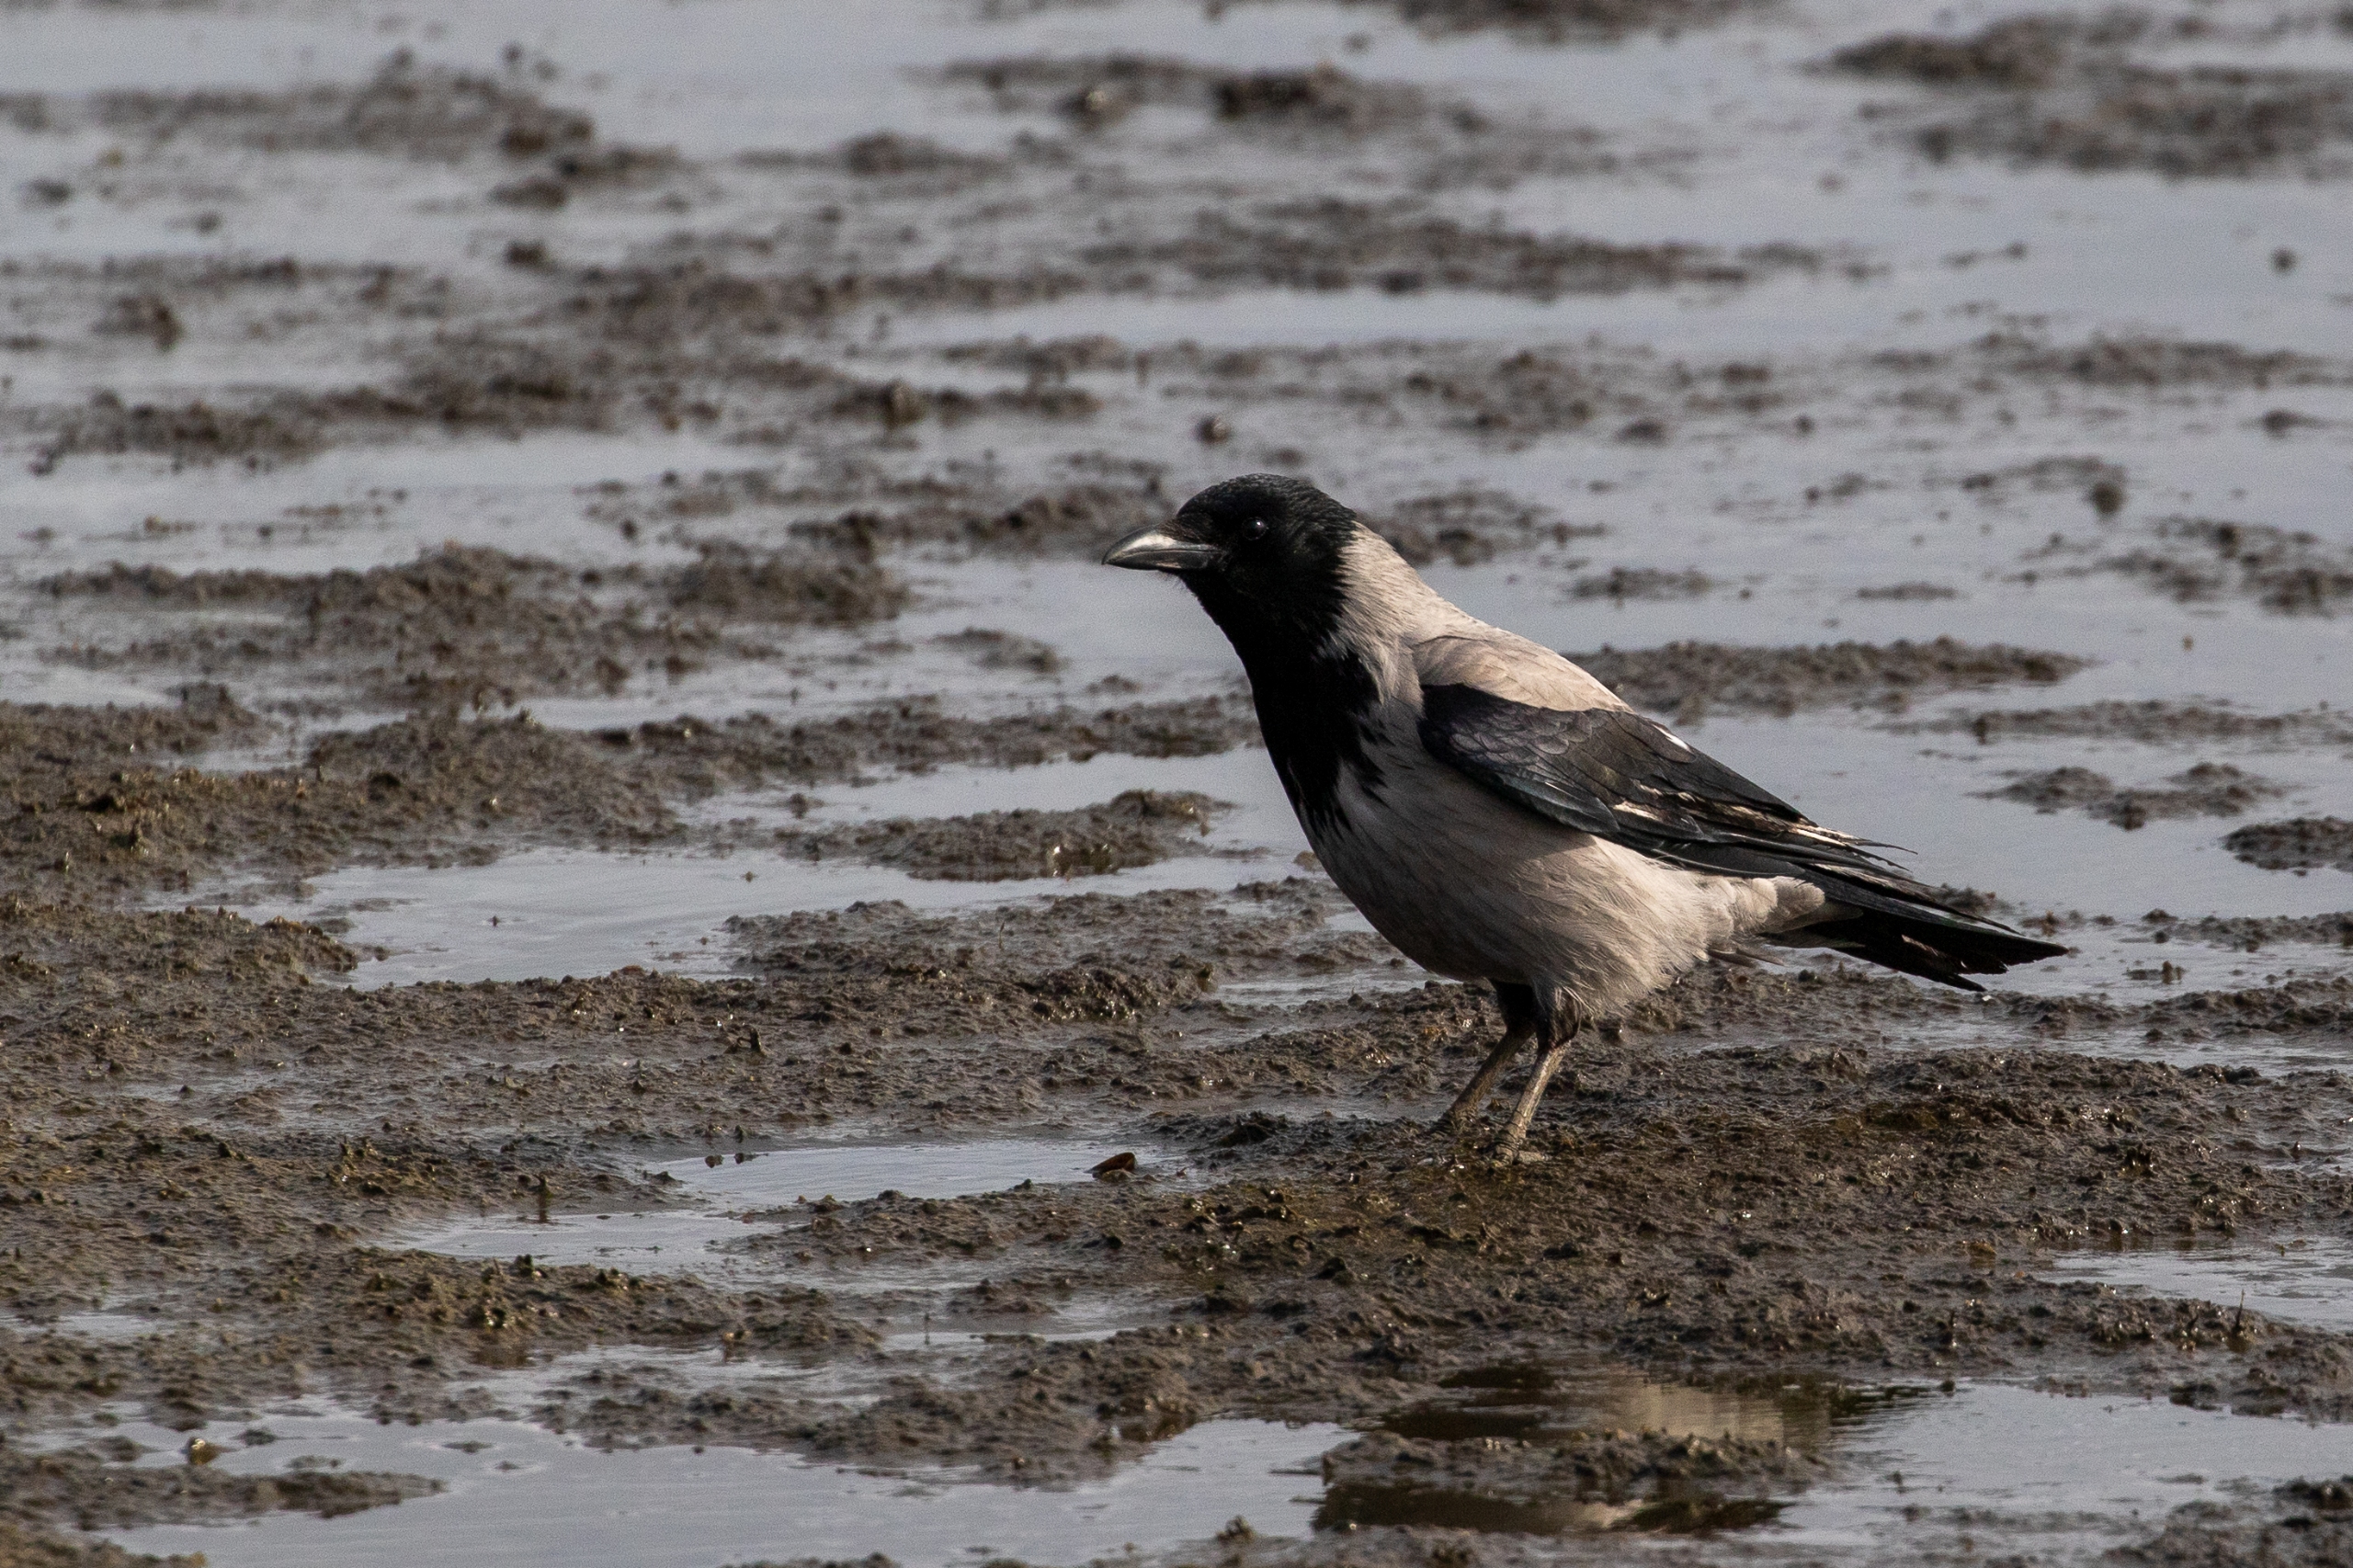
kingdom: Animalia
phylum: Chordata
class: Aves
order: Passeriformes
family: Corvidae
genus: Corvus
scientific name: Corvus cornix
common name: Gråkrage
